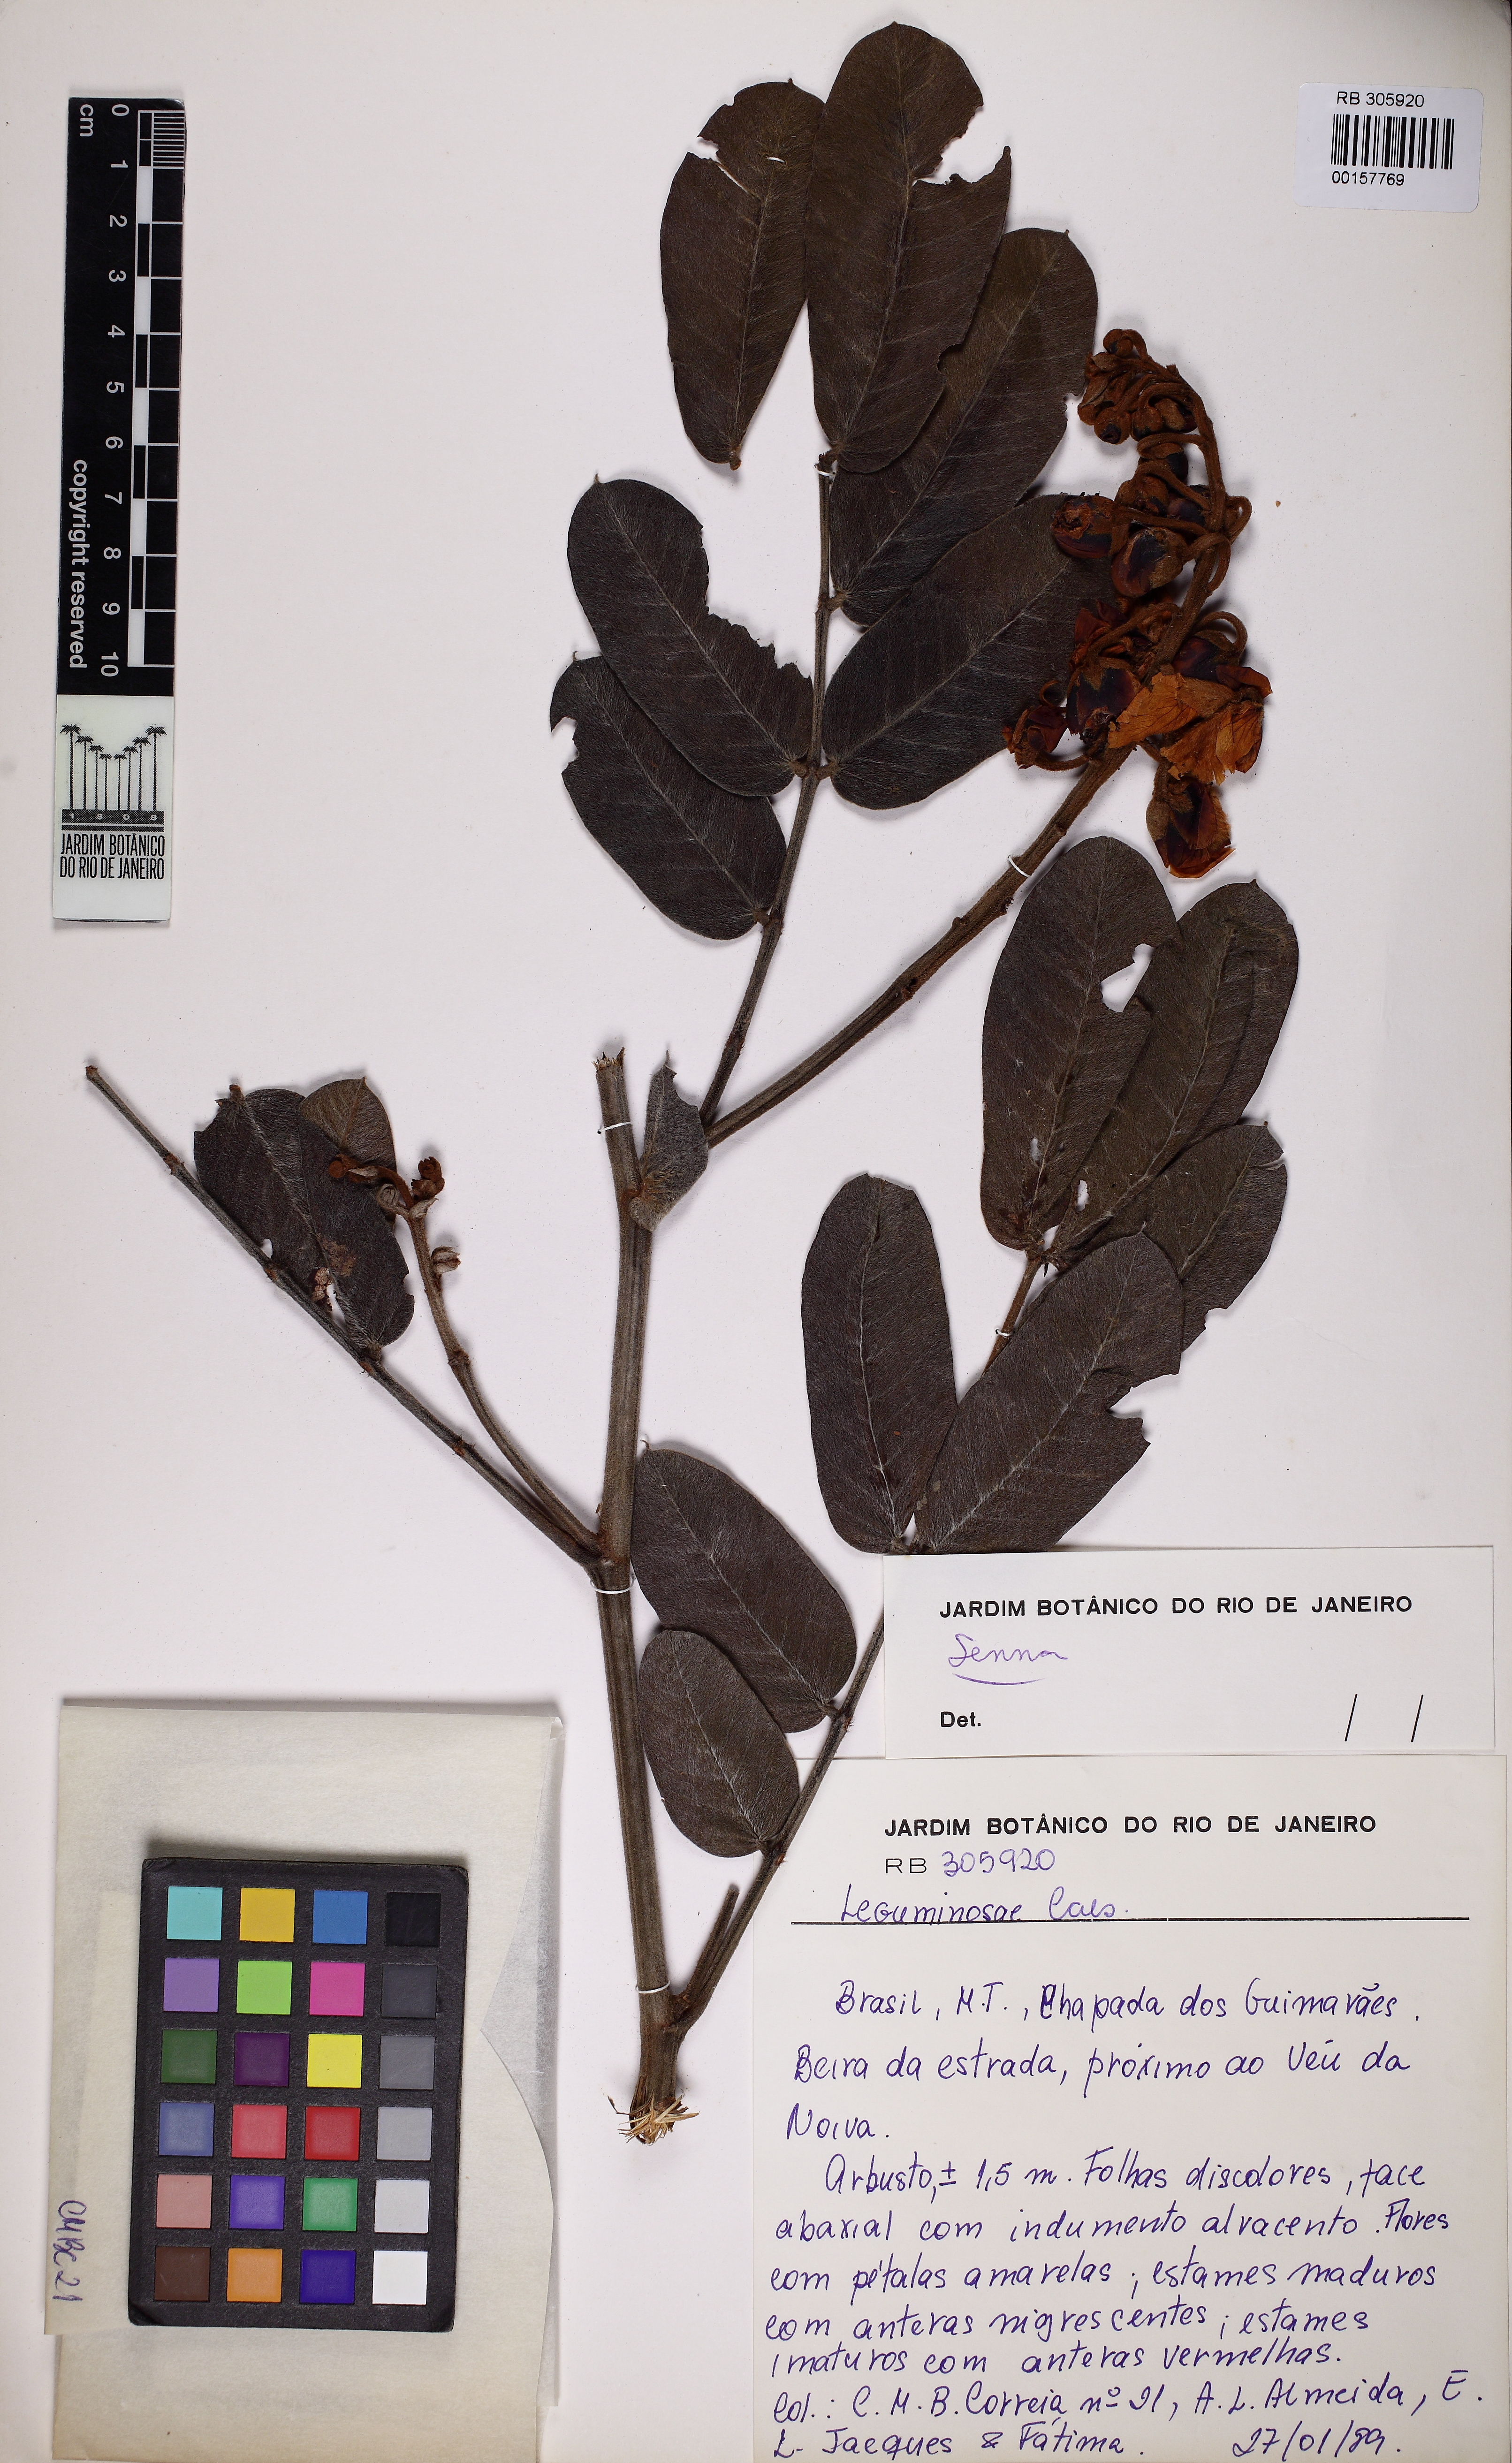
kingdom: Plantae
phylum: Tracheophyta
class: Magnoliopsida
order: Fabales
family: Fabaceae
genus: Senna
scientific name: Senna velutina
